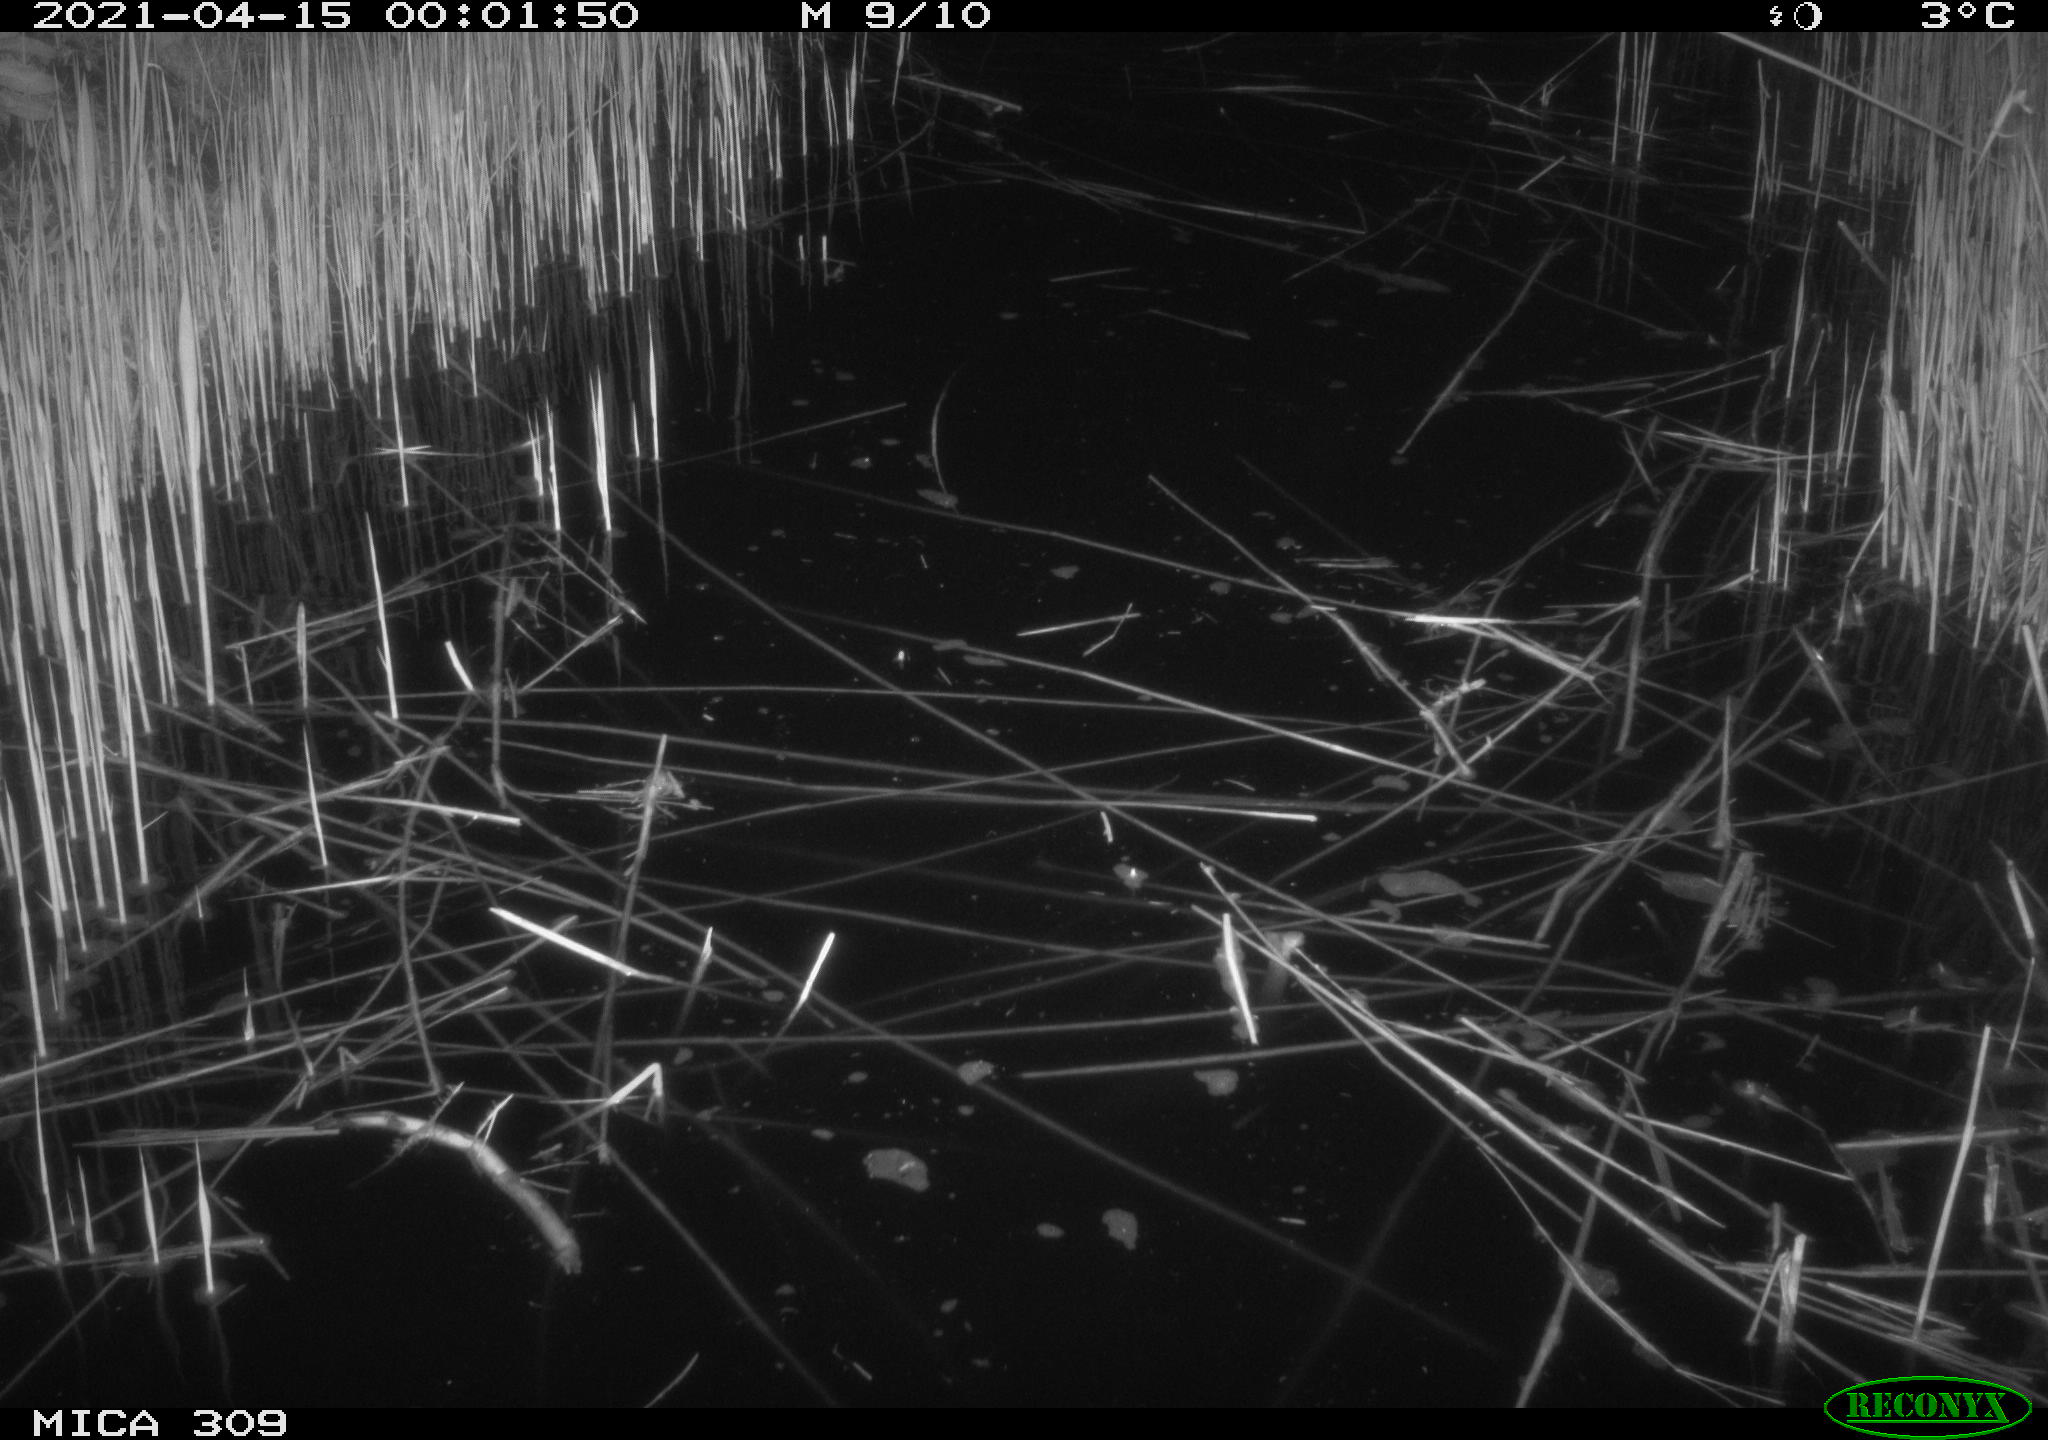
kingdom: Animalia
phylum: Chordata
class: Aves
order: Anseriformes
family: Anatidae
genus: Anas
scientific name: Anas platyrhynchos
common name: Mallard
